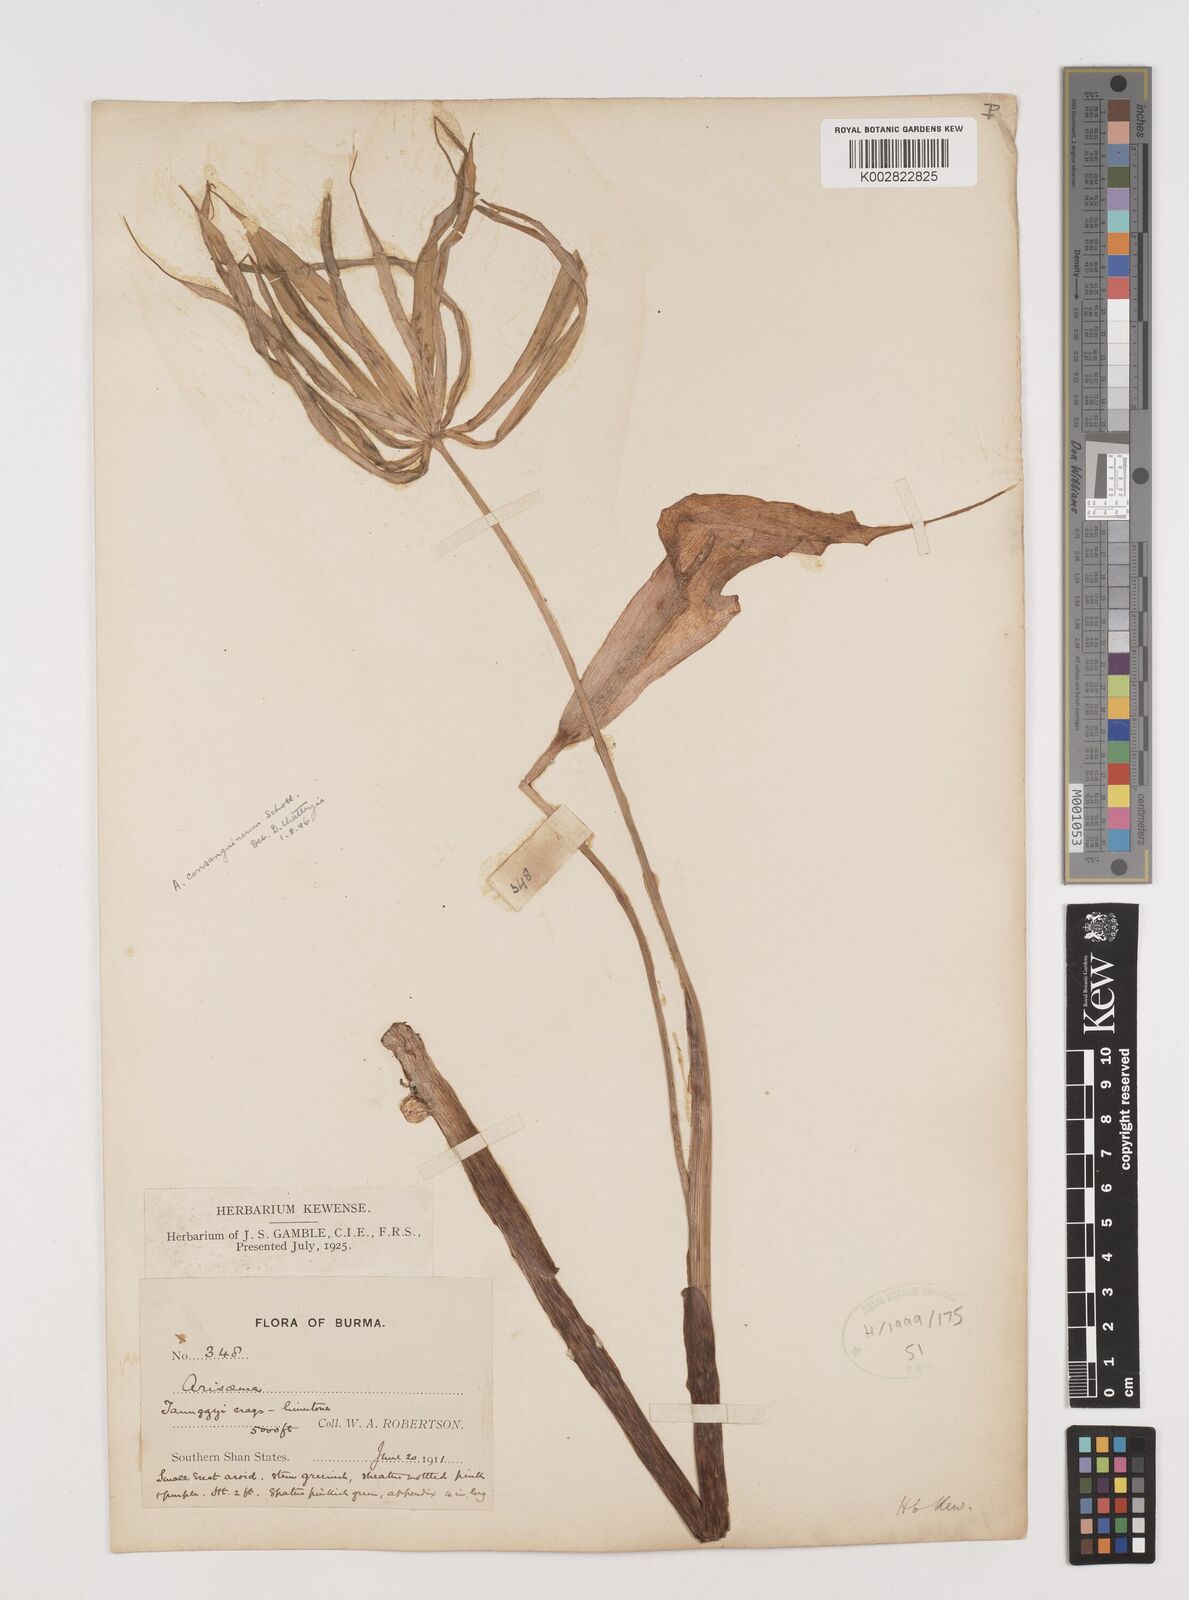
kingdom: Plantae
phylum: Tracheophyta
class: Liliopsida
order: Alismatales
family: Araceae
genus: Arisaema
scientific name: Arisaema consanguineum
